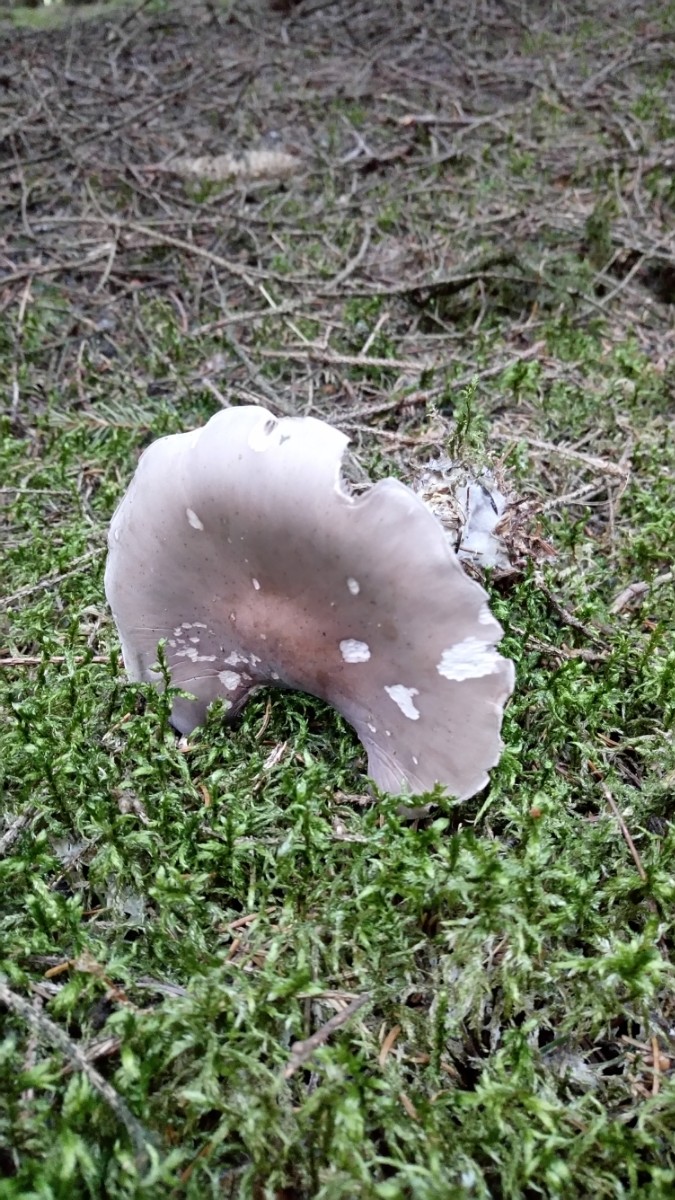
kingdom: Fungi
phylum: Basidiomycota
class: Agaricomycetes
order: Agaricales
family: Tricholomataceae
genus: Lepista
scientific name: Lepista nuda
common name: violet hekseringshat
